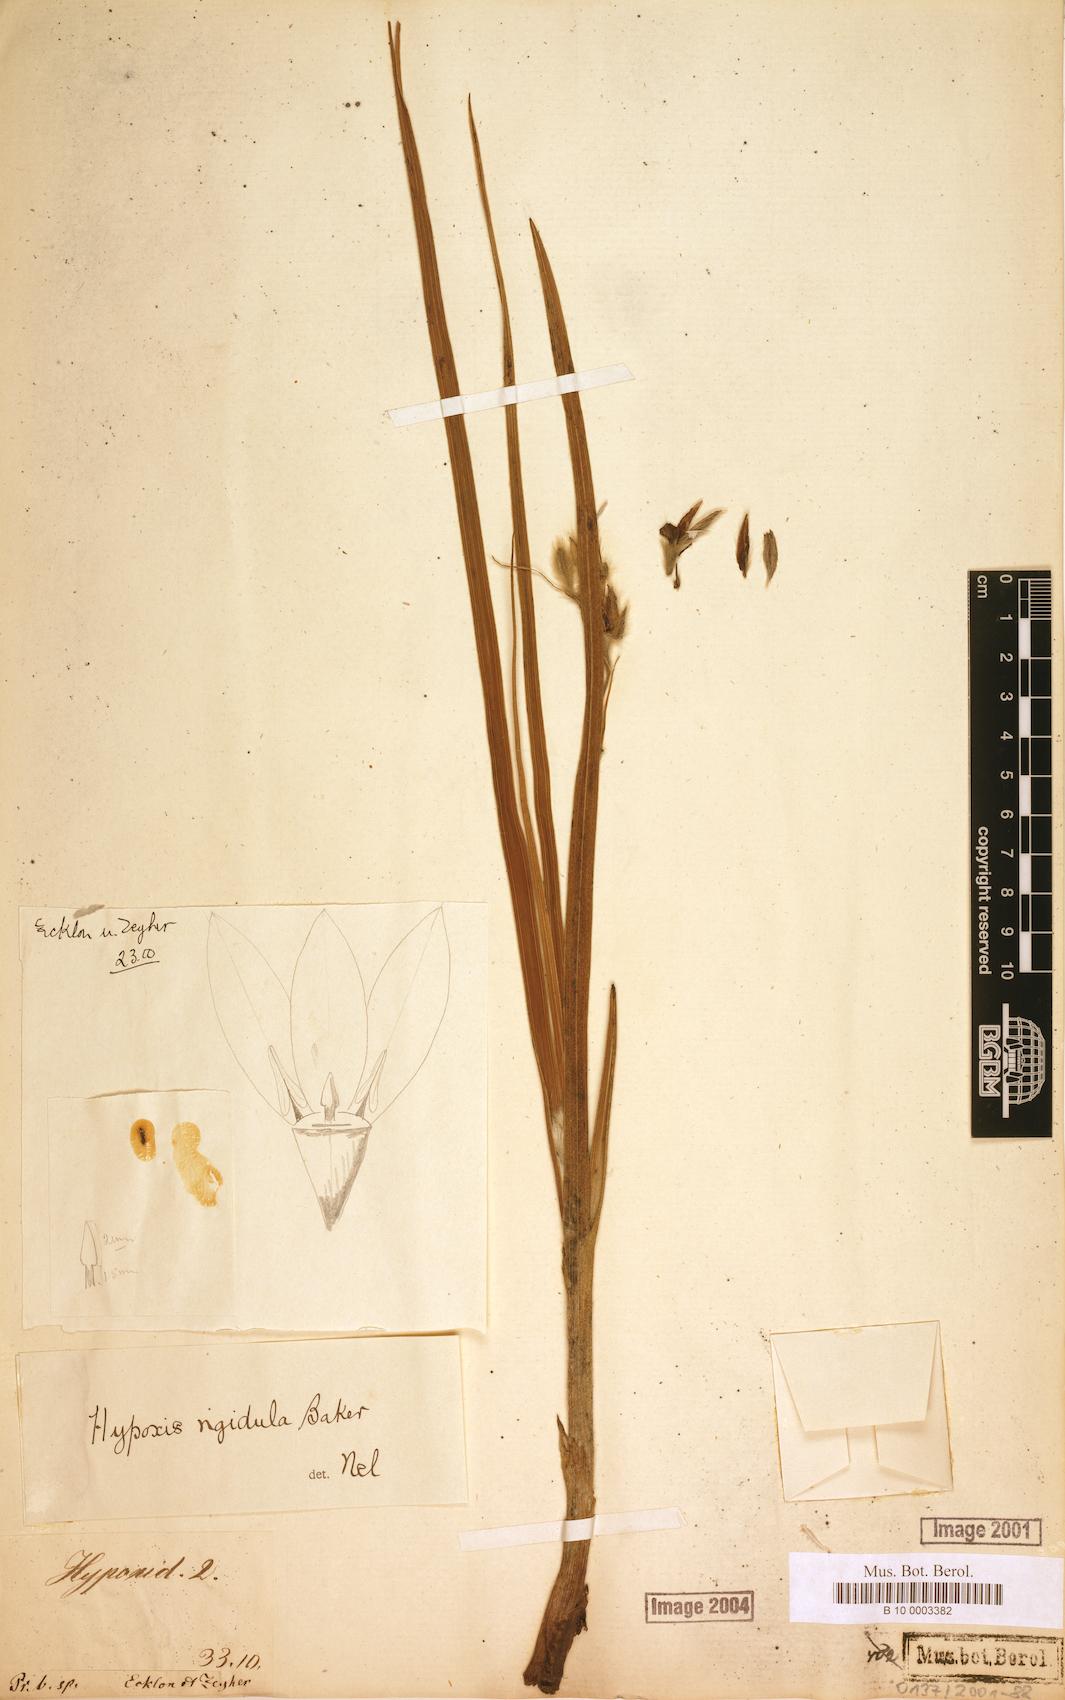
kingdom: Plantae
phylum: Tracheophyta
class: Liliopsida
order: Asparagales
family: Hypoxidaceae
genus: Hypoxis
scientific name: Hypoxis rigidula
